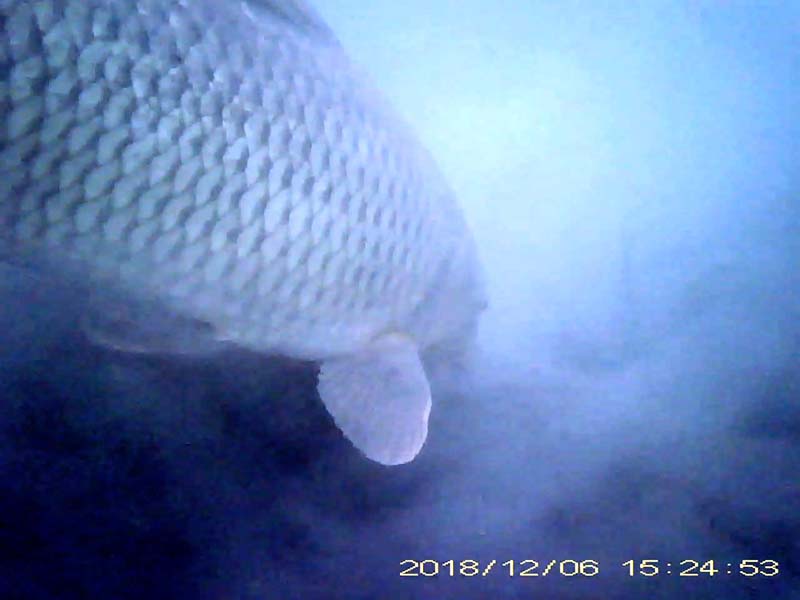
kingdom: Animalia
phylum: Chordata
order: Cypriniformes
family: Cyprinidae
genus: Cyprinus
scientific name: Cyprinus carpio
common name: コイ
